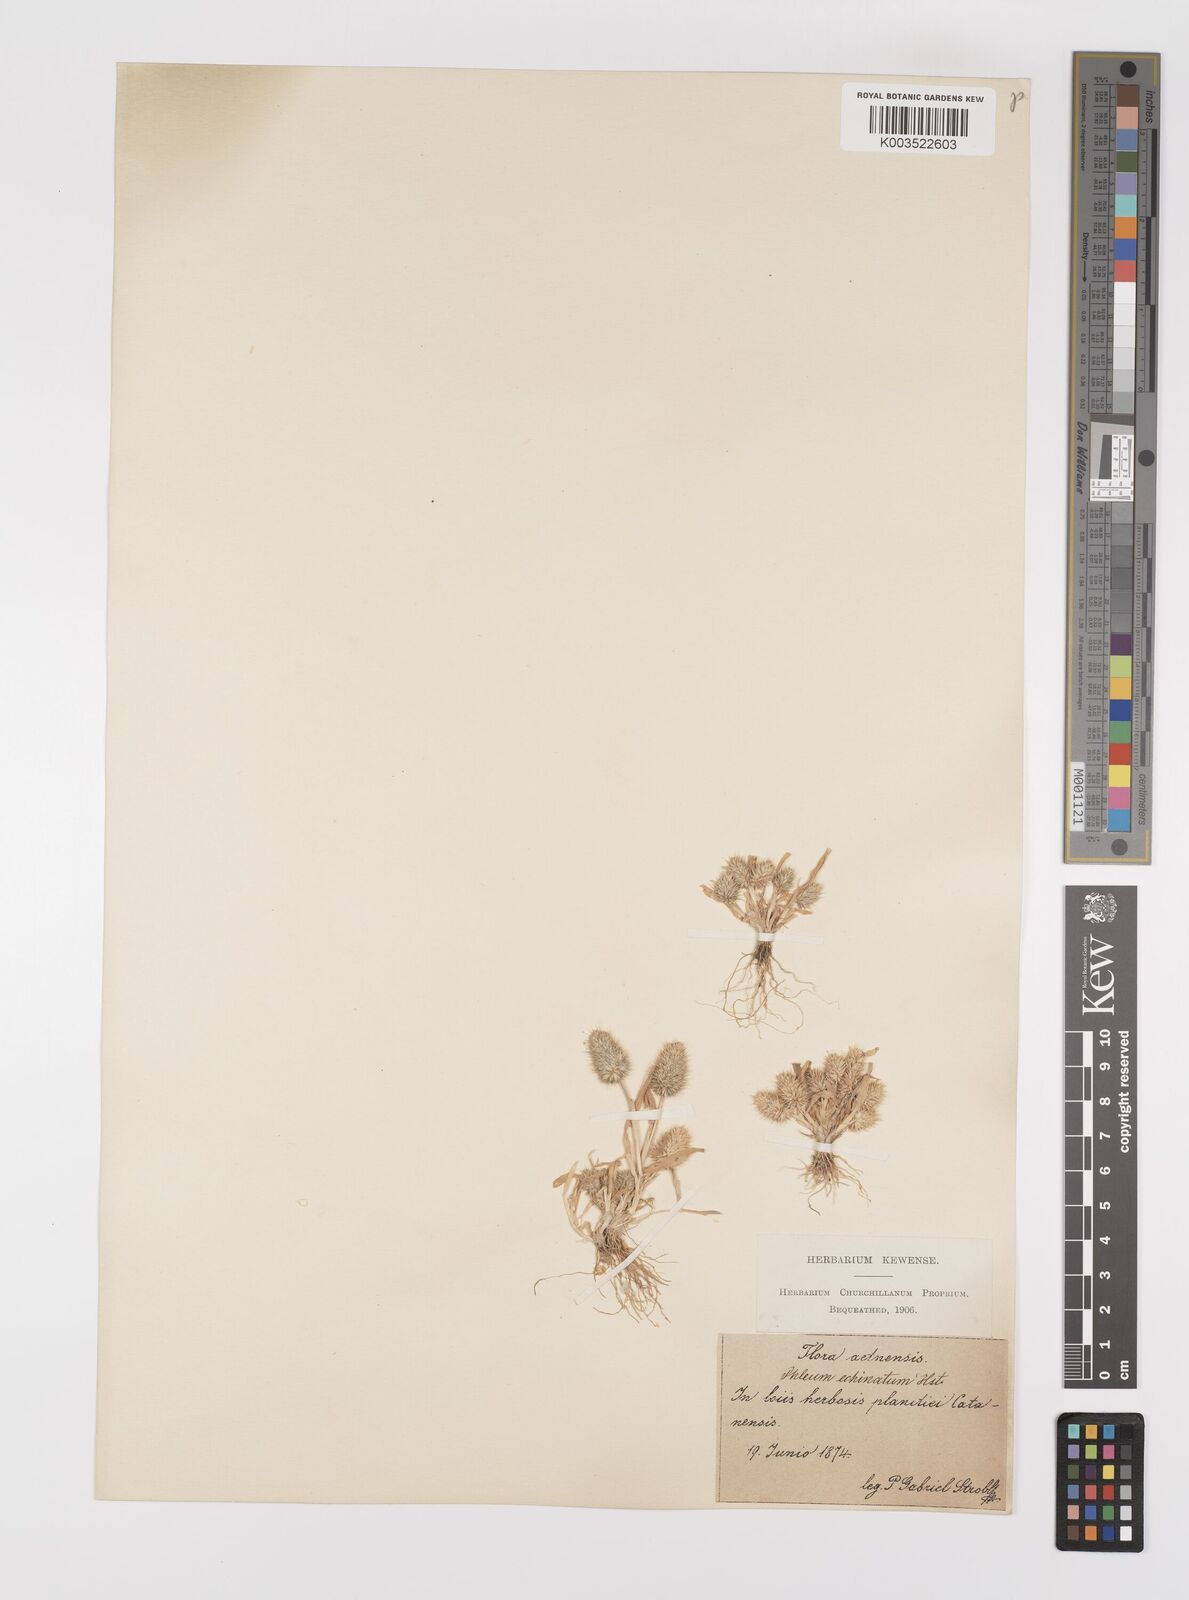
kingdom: Plantae
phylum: Tracheophyta
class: Liliopsida
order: Poales
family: Poaceae
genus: Phleum
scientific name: Phleum echinatum
